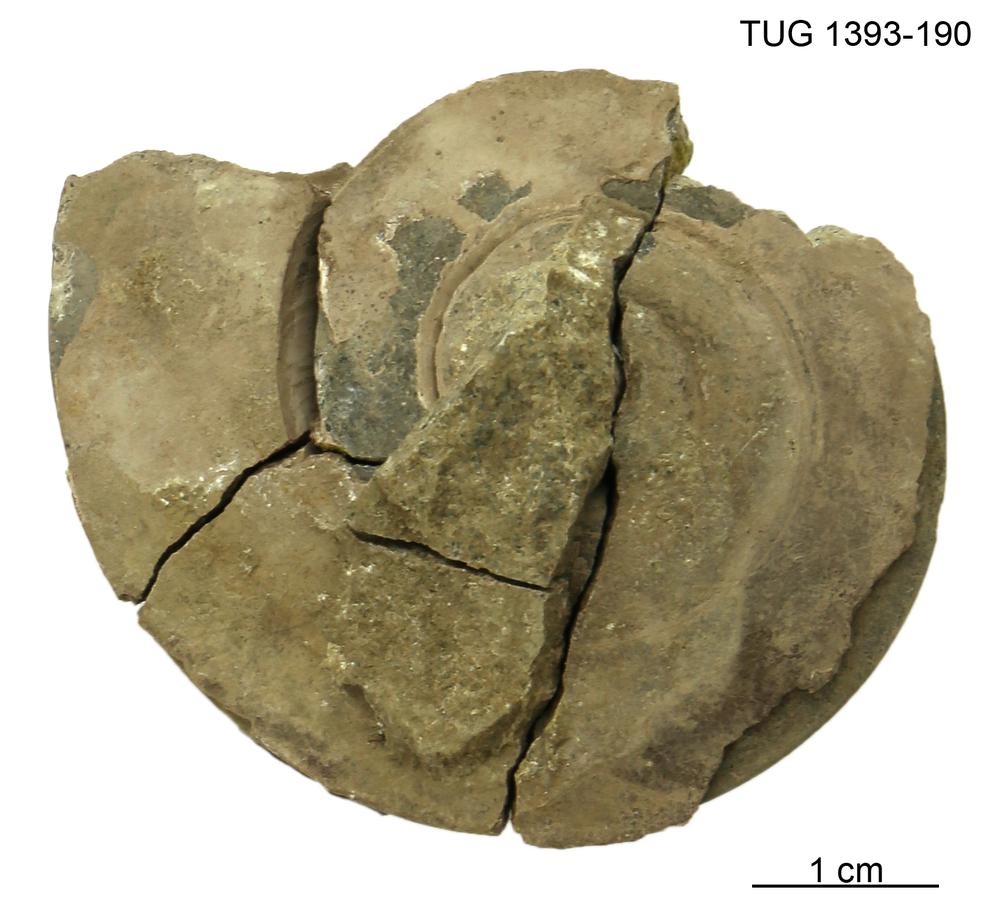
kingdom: Animalia
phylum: Mollusca
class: Gastropoda
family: Lesueurillidae
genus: Pararaphistoma
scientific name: Pararaphistoma Helicites qualteriata
